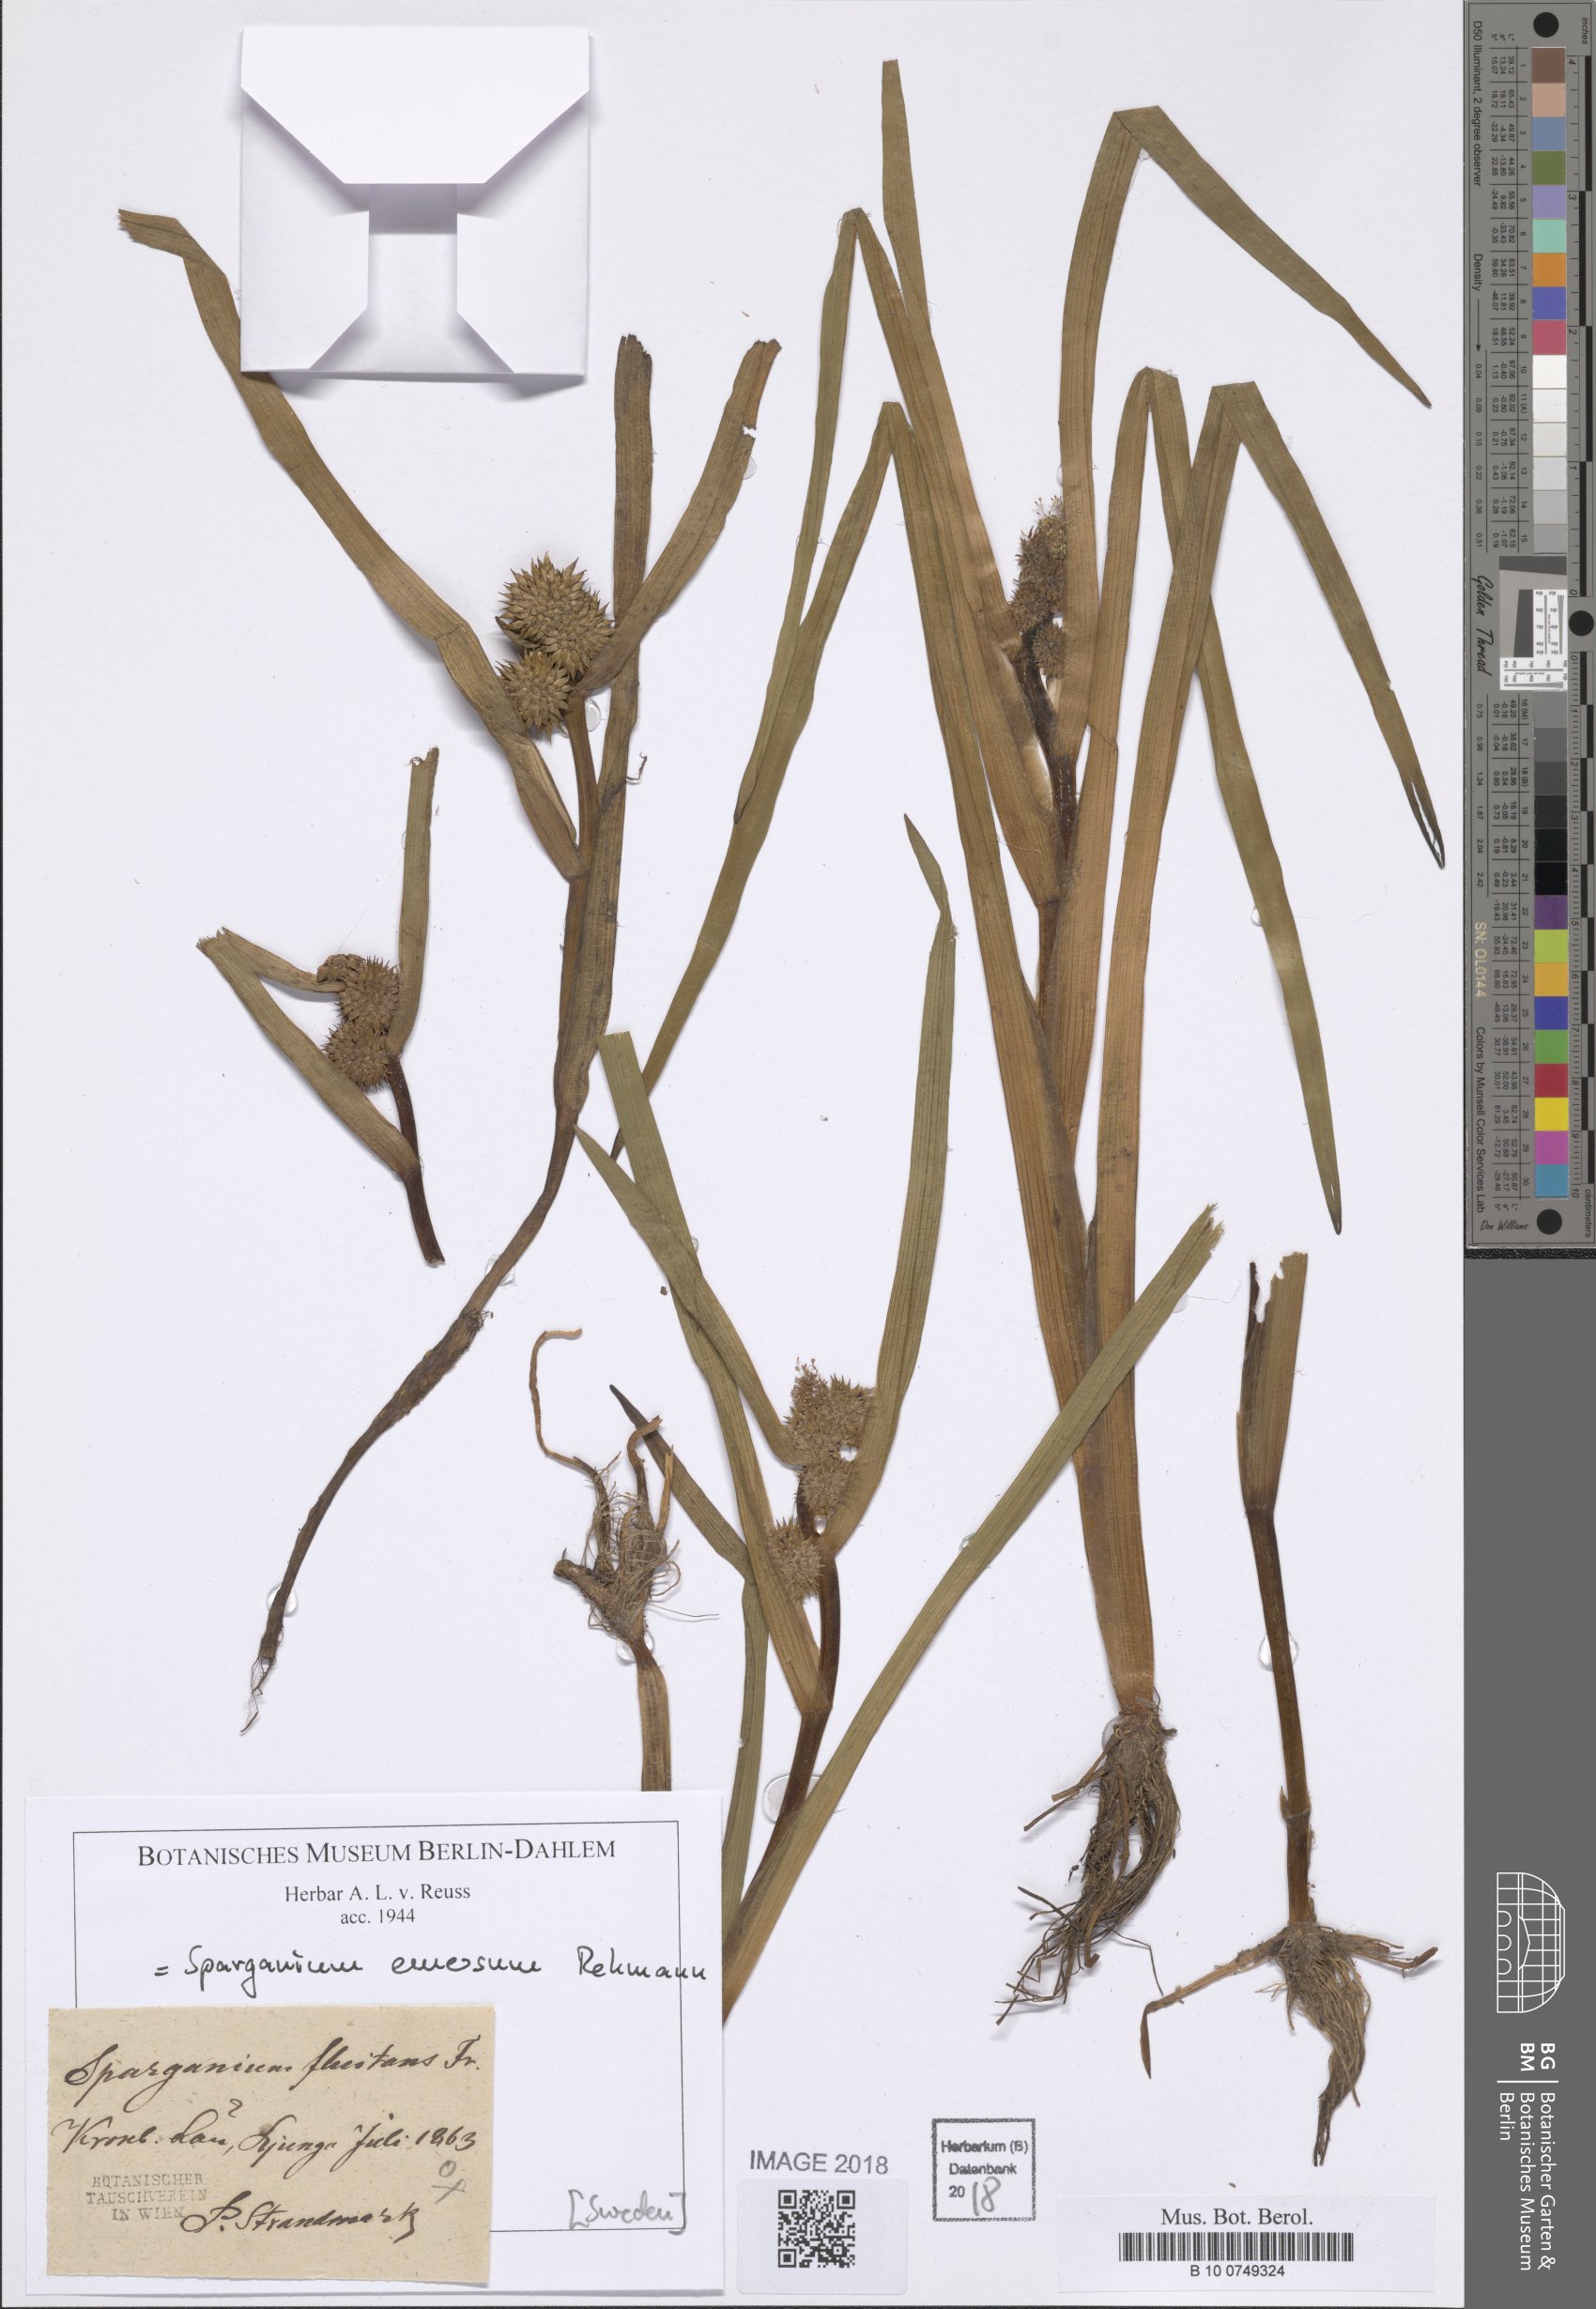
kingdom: Plantae
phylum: Tracheophyta
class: Liliopsida
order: Poales
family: Typhaceae
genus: Sparganium
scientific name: Sparganium emersum
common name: Unbranched bur-reed
